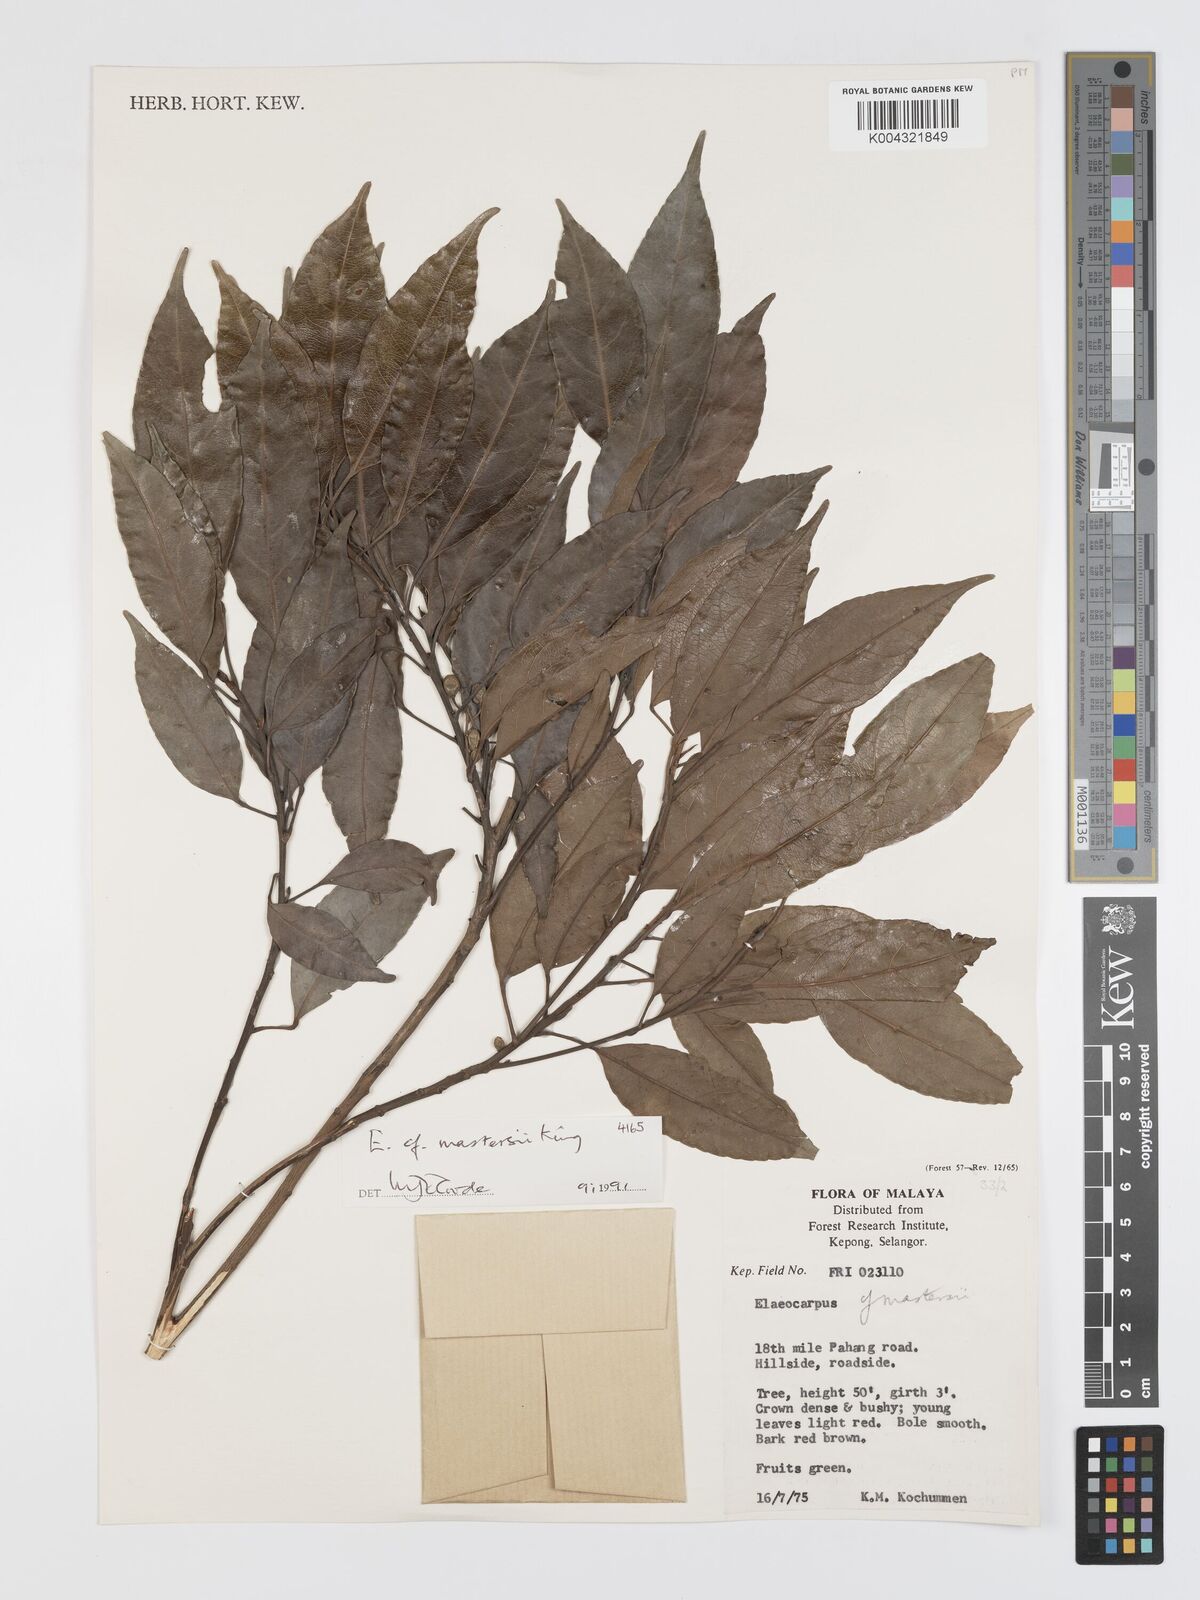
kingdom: Plantae
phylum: Tracheophyta
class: Magnoliopsida
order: Oxalidales
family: Elaeocarpaceae
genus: Elaeocarpus
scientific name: Elaeocarpus mastersii
